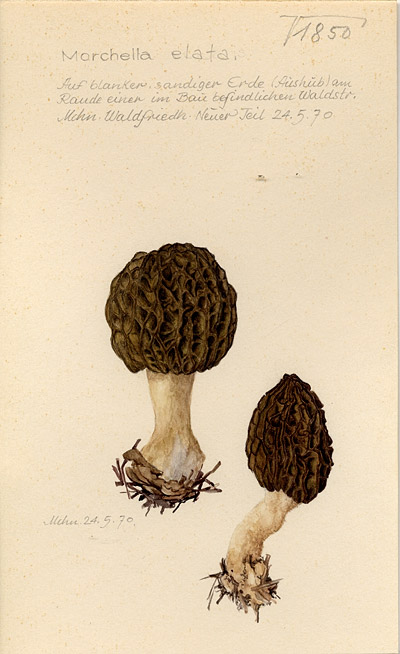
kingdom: Fungi
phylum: Ascomycota
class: Pezizomycetes
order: Pezizales
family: Morchellaceae
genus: Morchella
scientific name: Morchella elata
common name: Black morel
